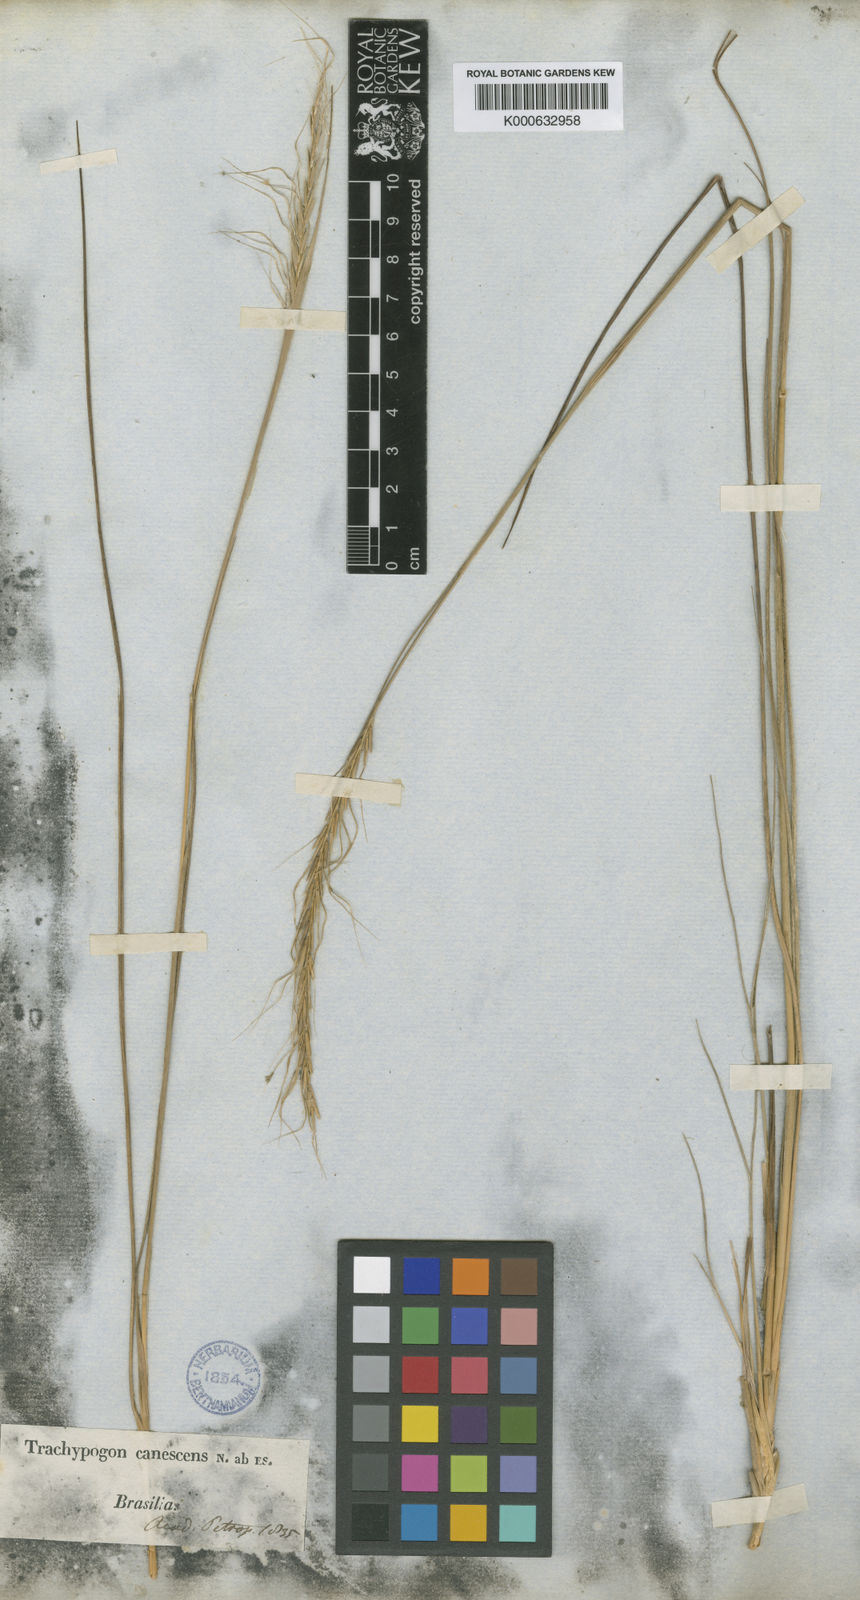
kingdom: Plantae
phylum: Tracheophyta
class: Liliopsida
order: Poales
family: Poaceae
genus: Trachypogon
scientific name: Trachypogon spicatus
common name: Crinkle-awn
